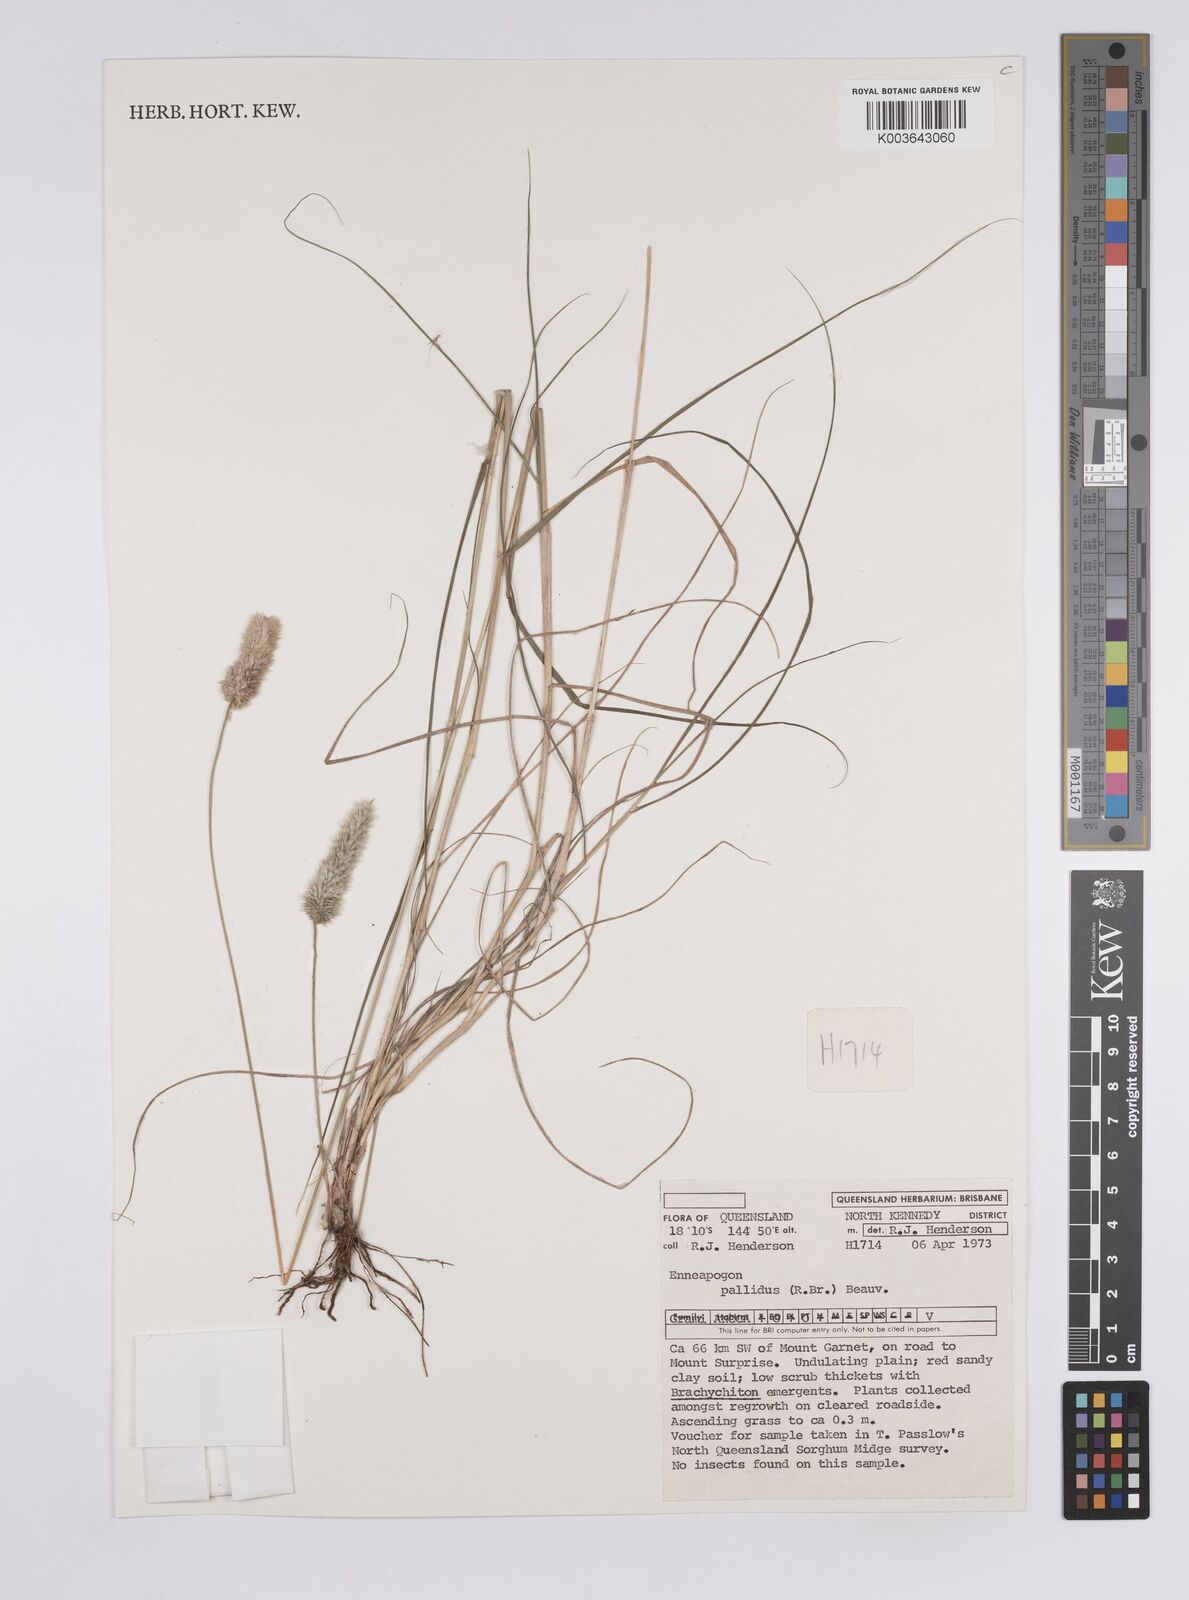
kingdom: Plantae
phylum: Tracheophyta
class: Liliopsida
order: Poales
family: Poaceae
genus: Enneapogon
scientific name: Enneapogon pallidus
